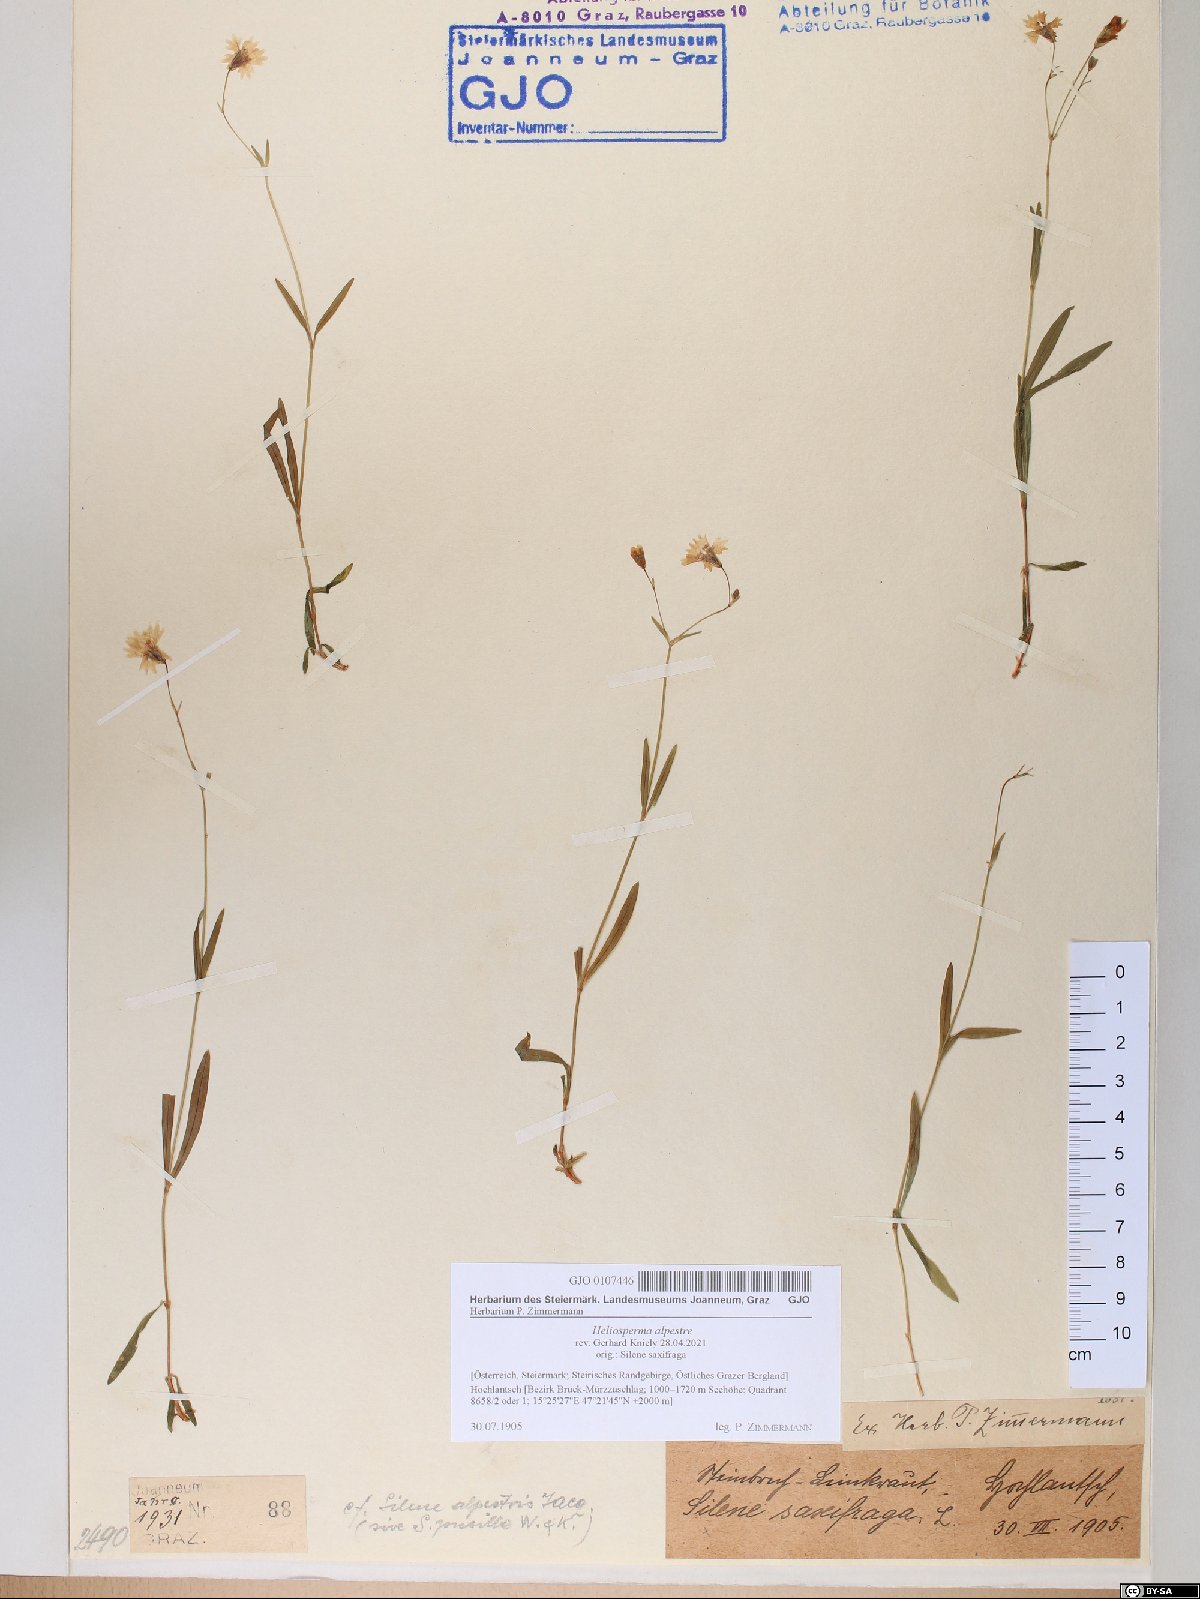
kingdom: Plantae
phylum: Tracheophyta
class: Magnoliopsida
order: Caryophyllales
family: Caryophyllaceae
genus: Heliosperma
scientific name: Heliosperma alpestre
